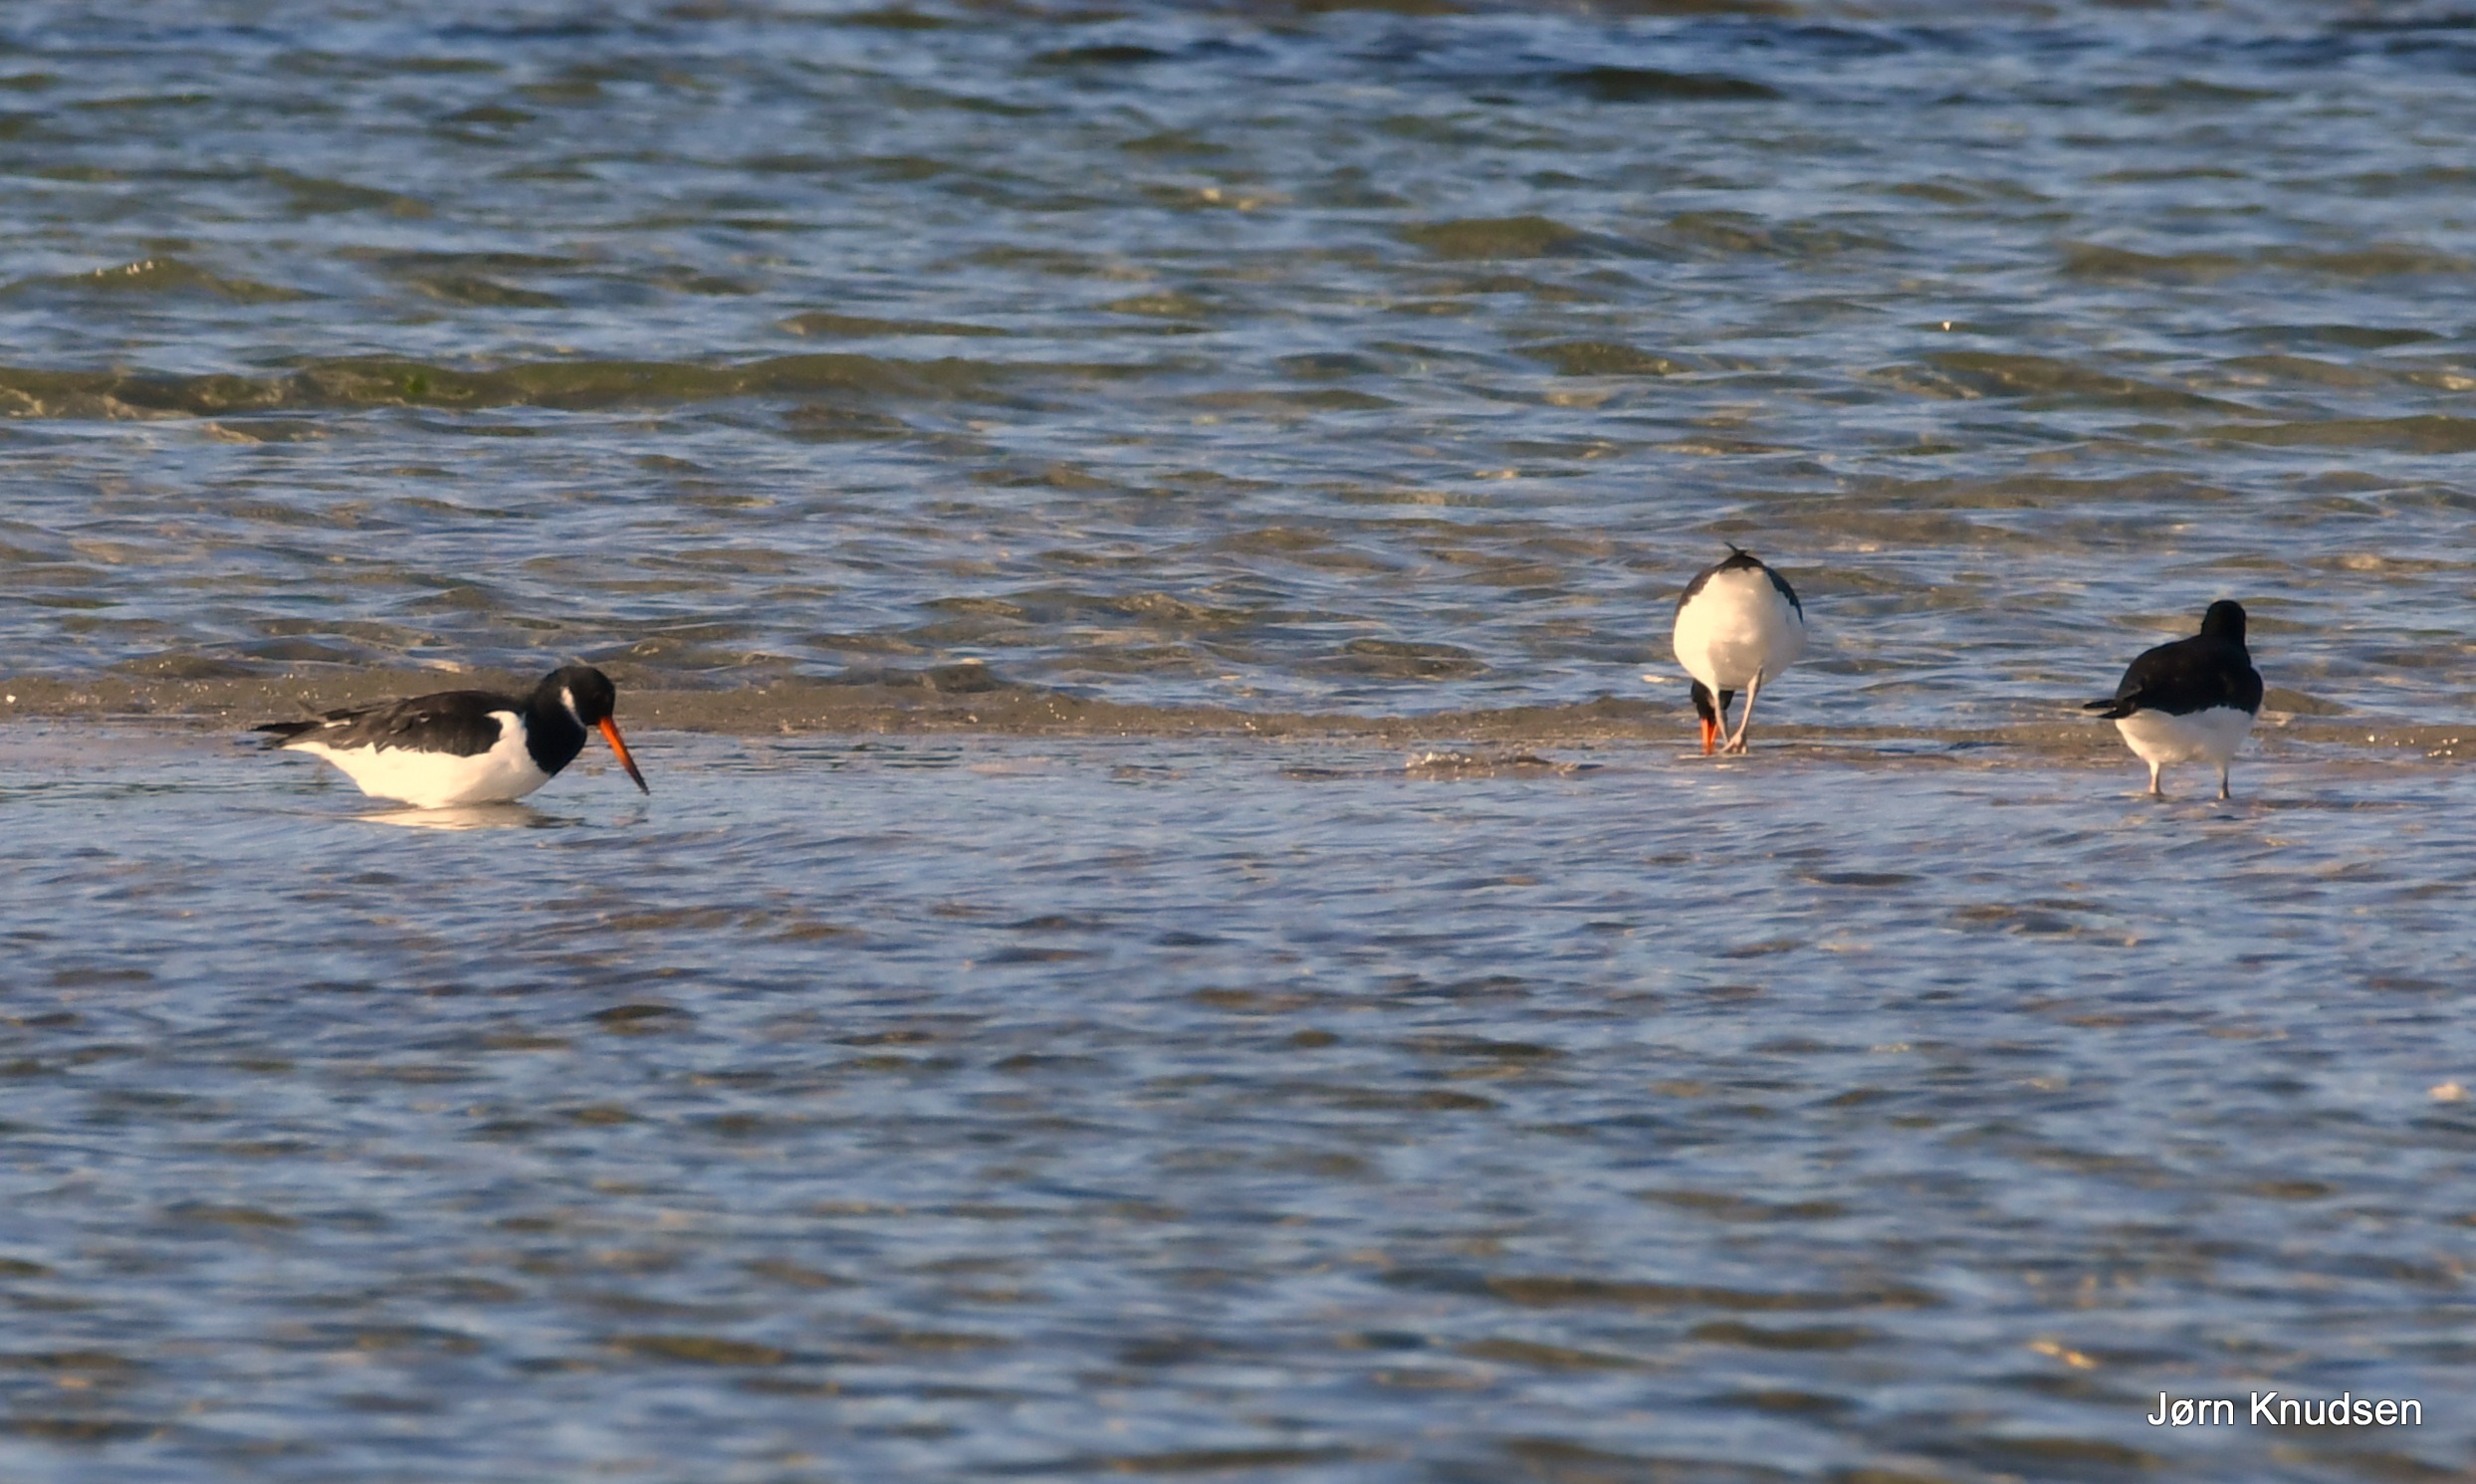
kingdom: Animalia
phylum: Chordata
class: Aves
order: Charadriiformes
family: Haematopodidae
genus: Haematopus
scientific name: Haematopus ostralegus
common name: Strandskade
